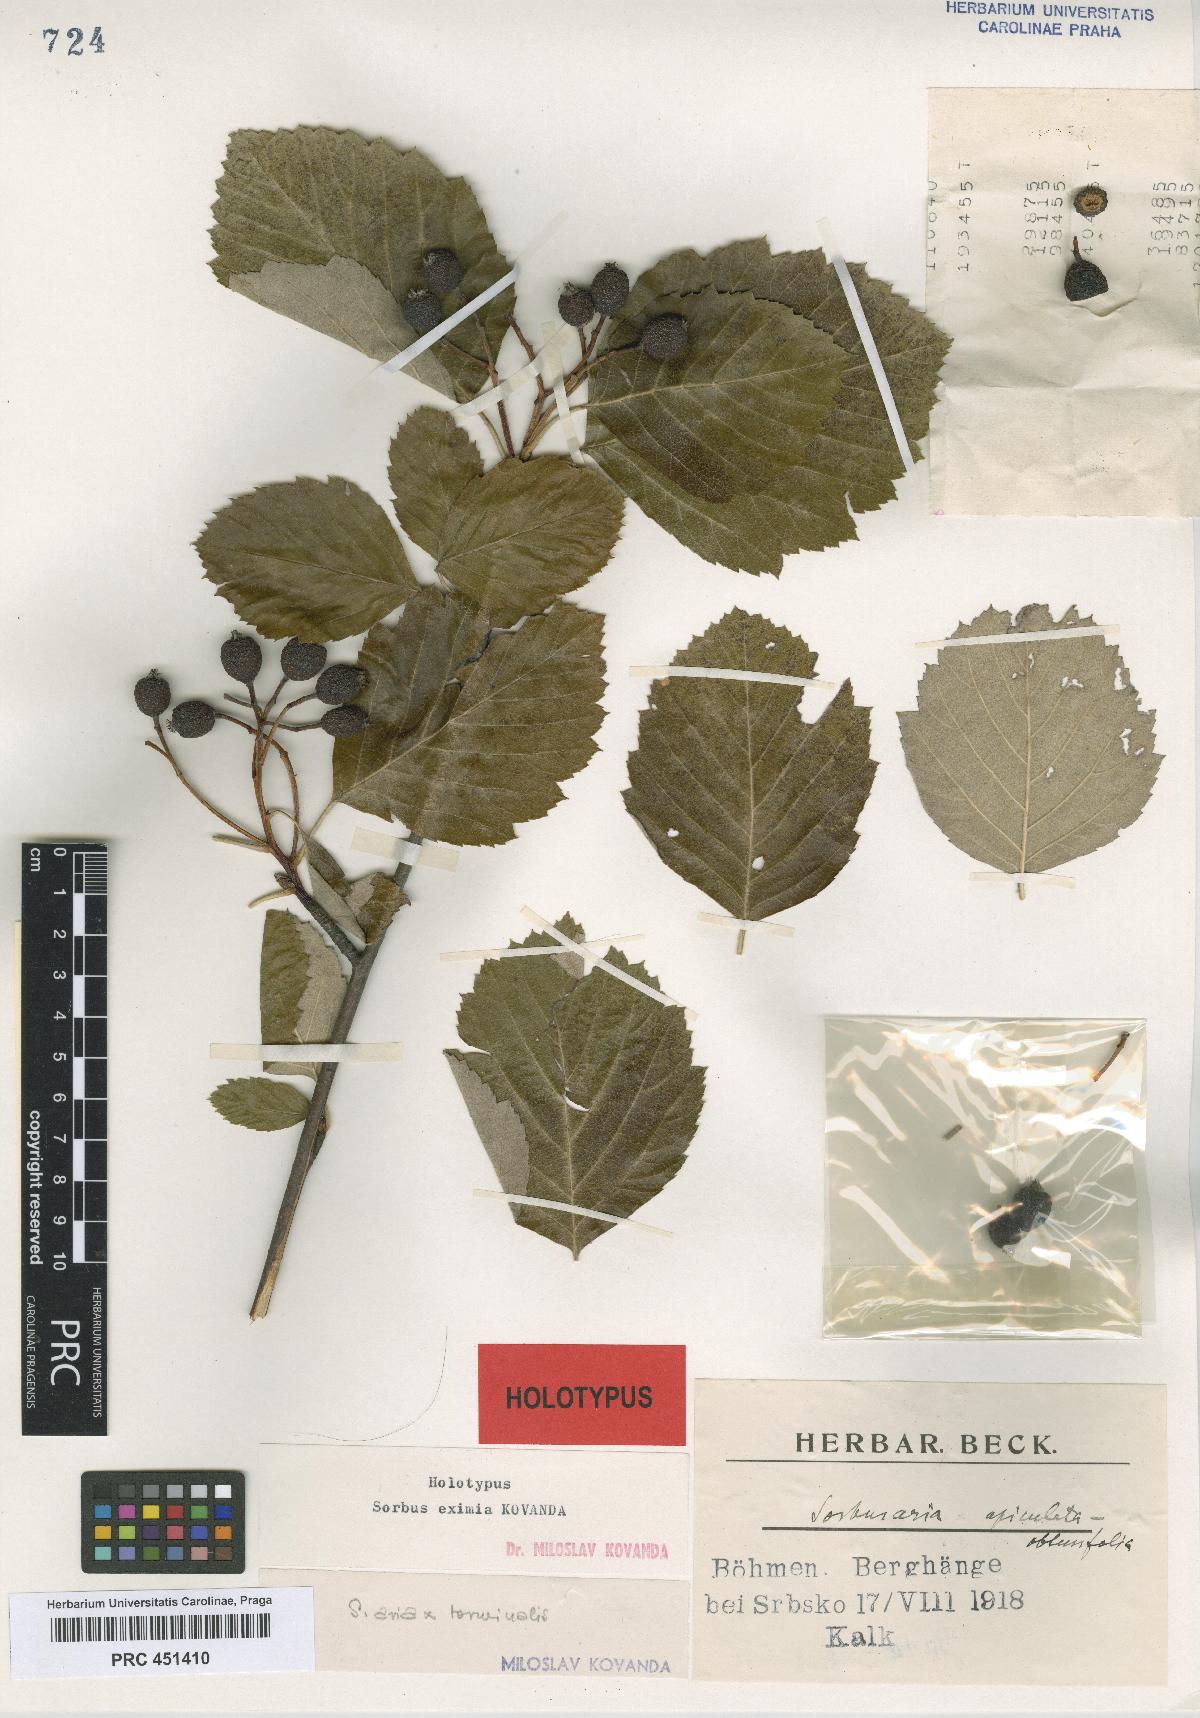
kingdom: Plantae
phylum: Tracheophyta
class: Magnoliopsida
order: Rosales
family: Rosaceae
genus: Karpatiosorbus
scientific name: Karpatiosorbus eximia
